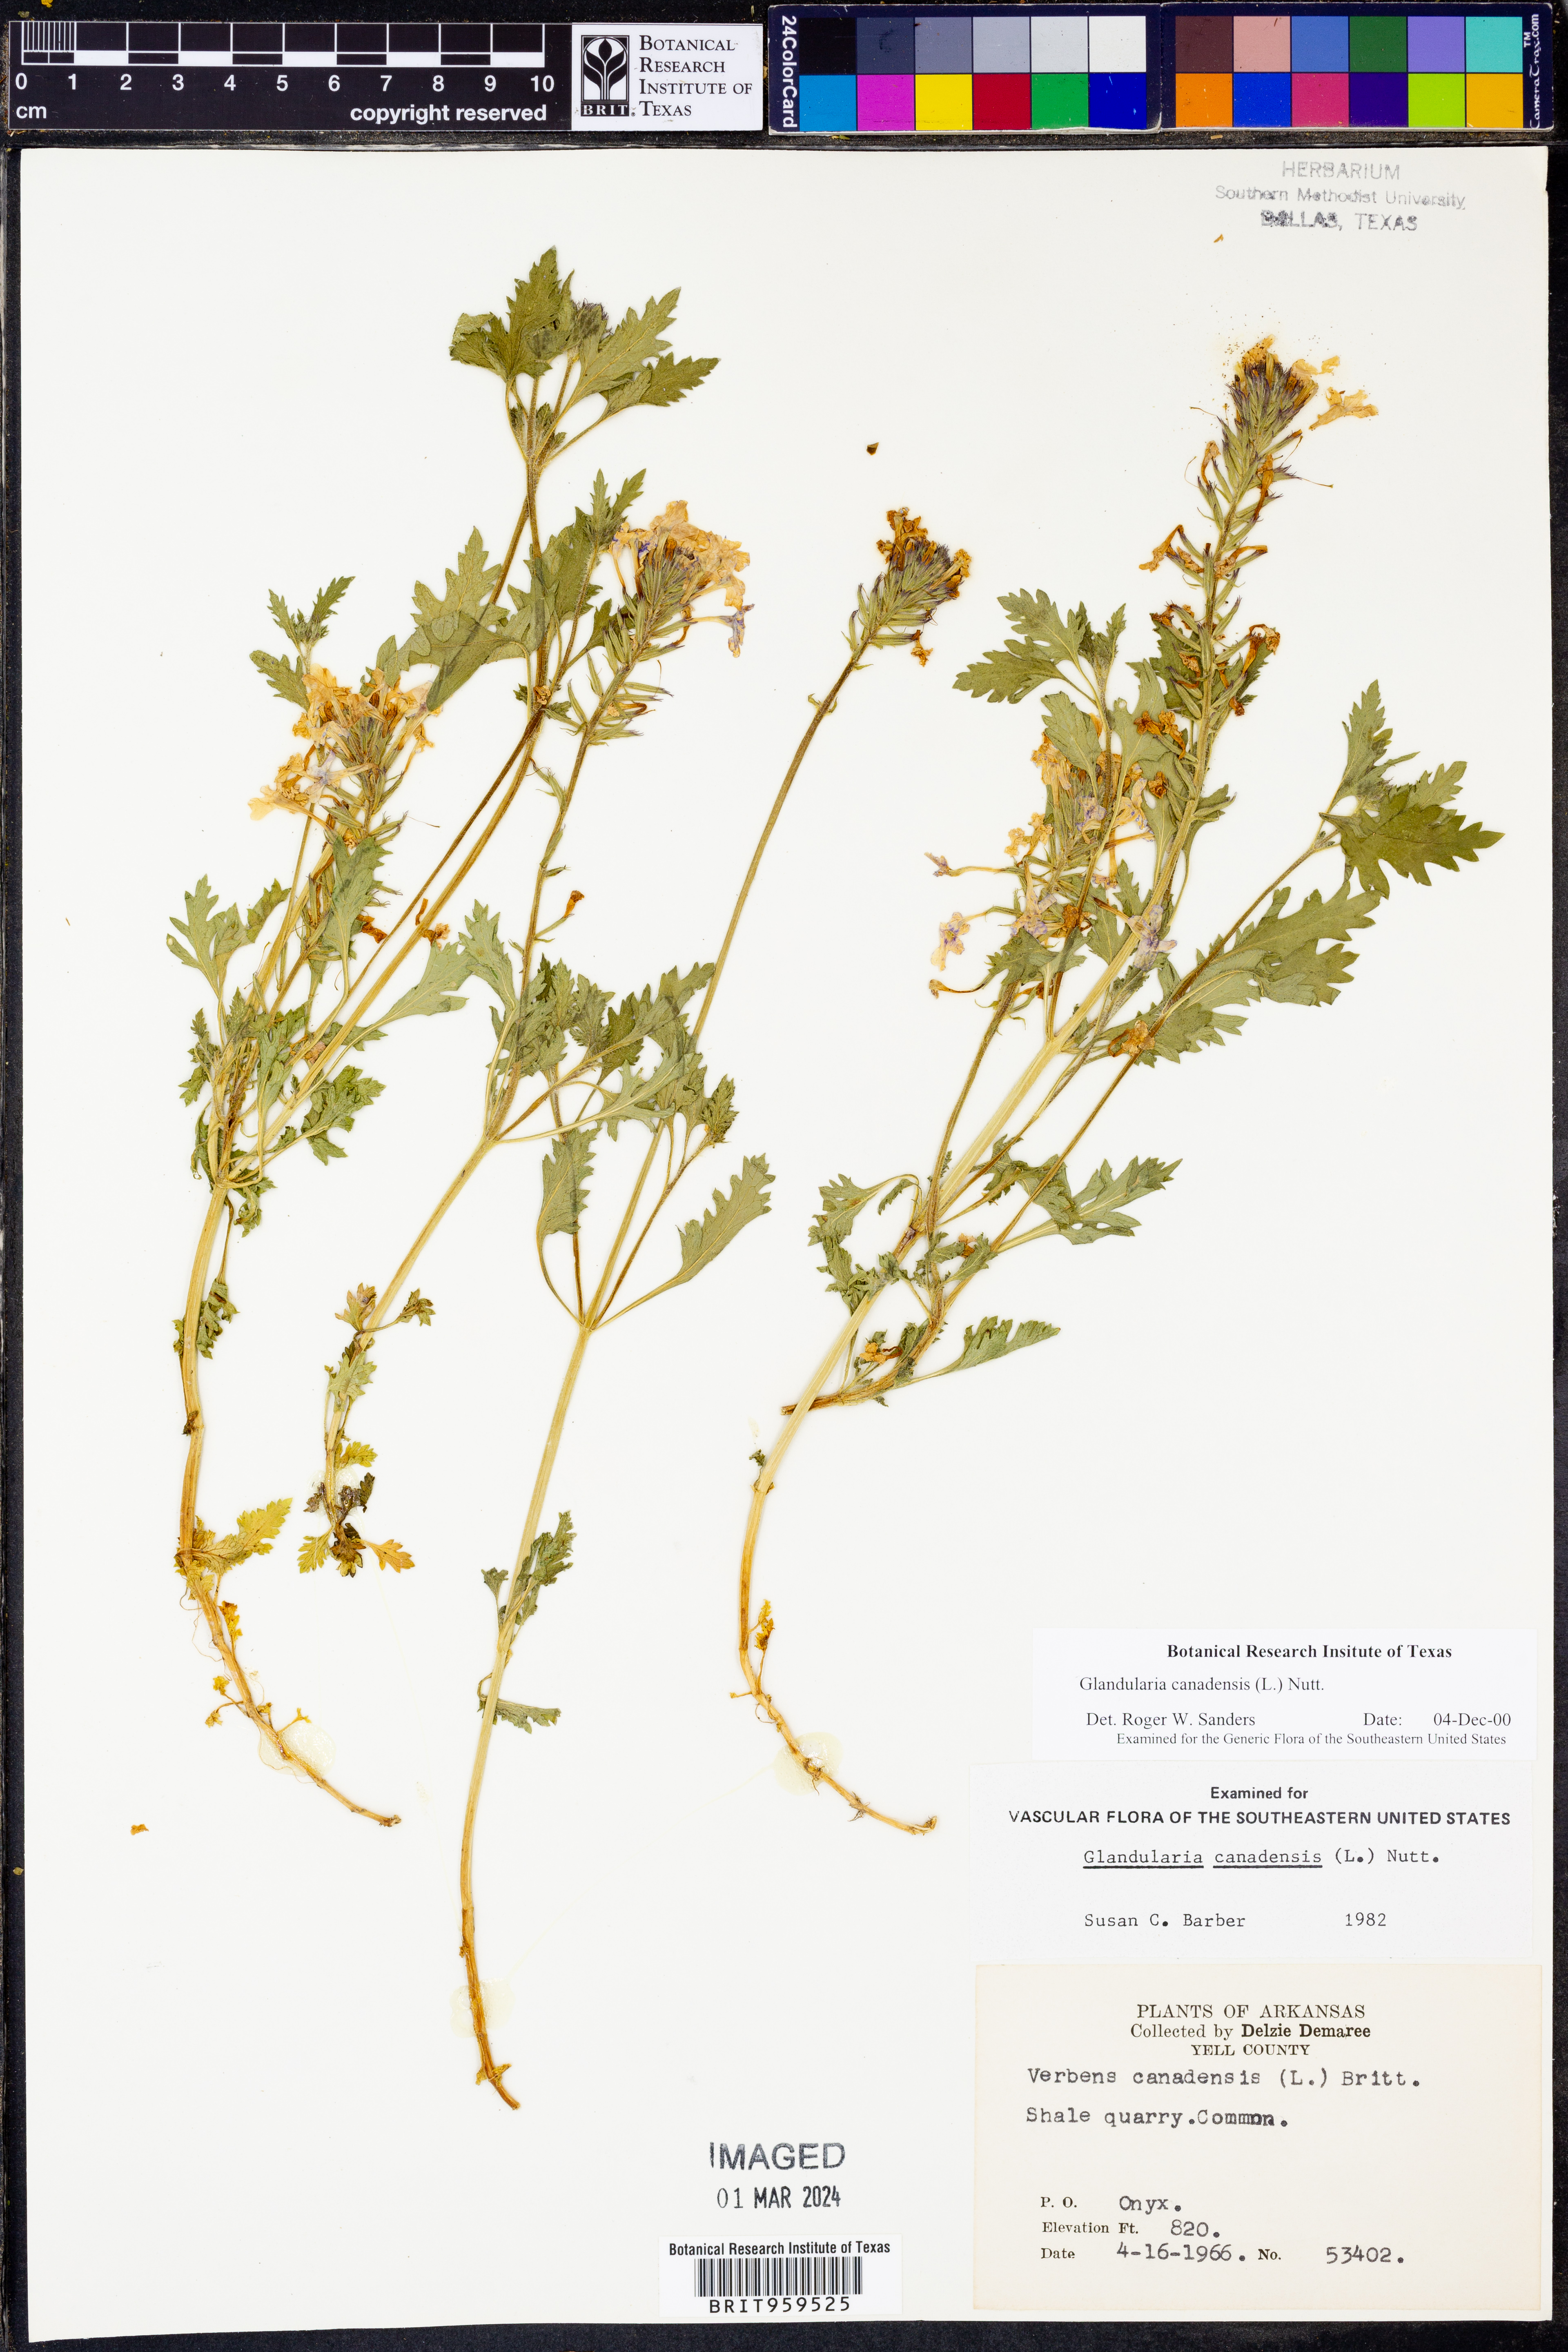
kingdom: Plantae
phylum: Tracheophyta
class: Magnoliopsida
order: Lamiales
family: Verbenaceae
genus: Verbena
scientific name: Verbena canadensis
